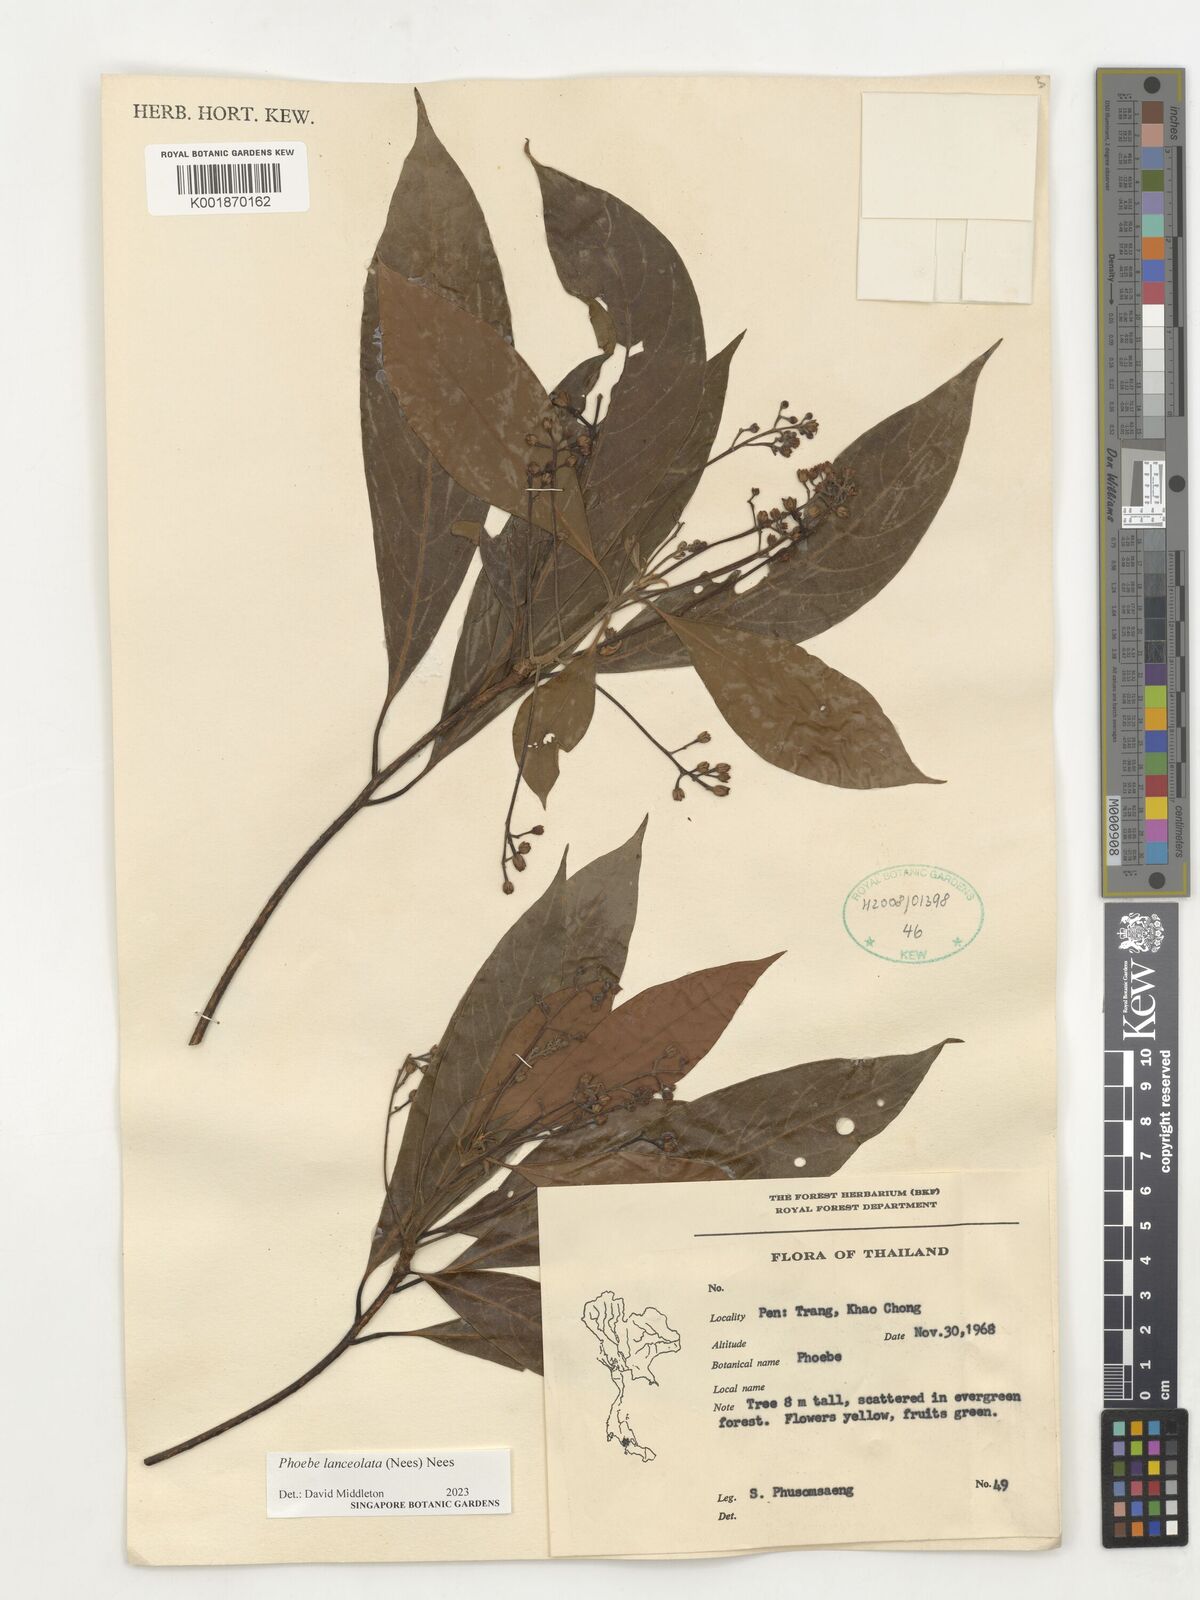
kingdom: Plantae
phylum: Tracheophyta
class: Magnoliopsida
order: Laurales
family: Lauraceae
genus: Phoebe
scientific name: Phoebe lanceolata
